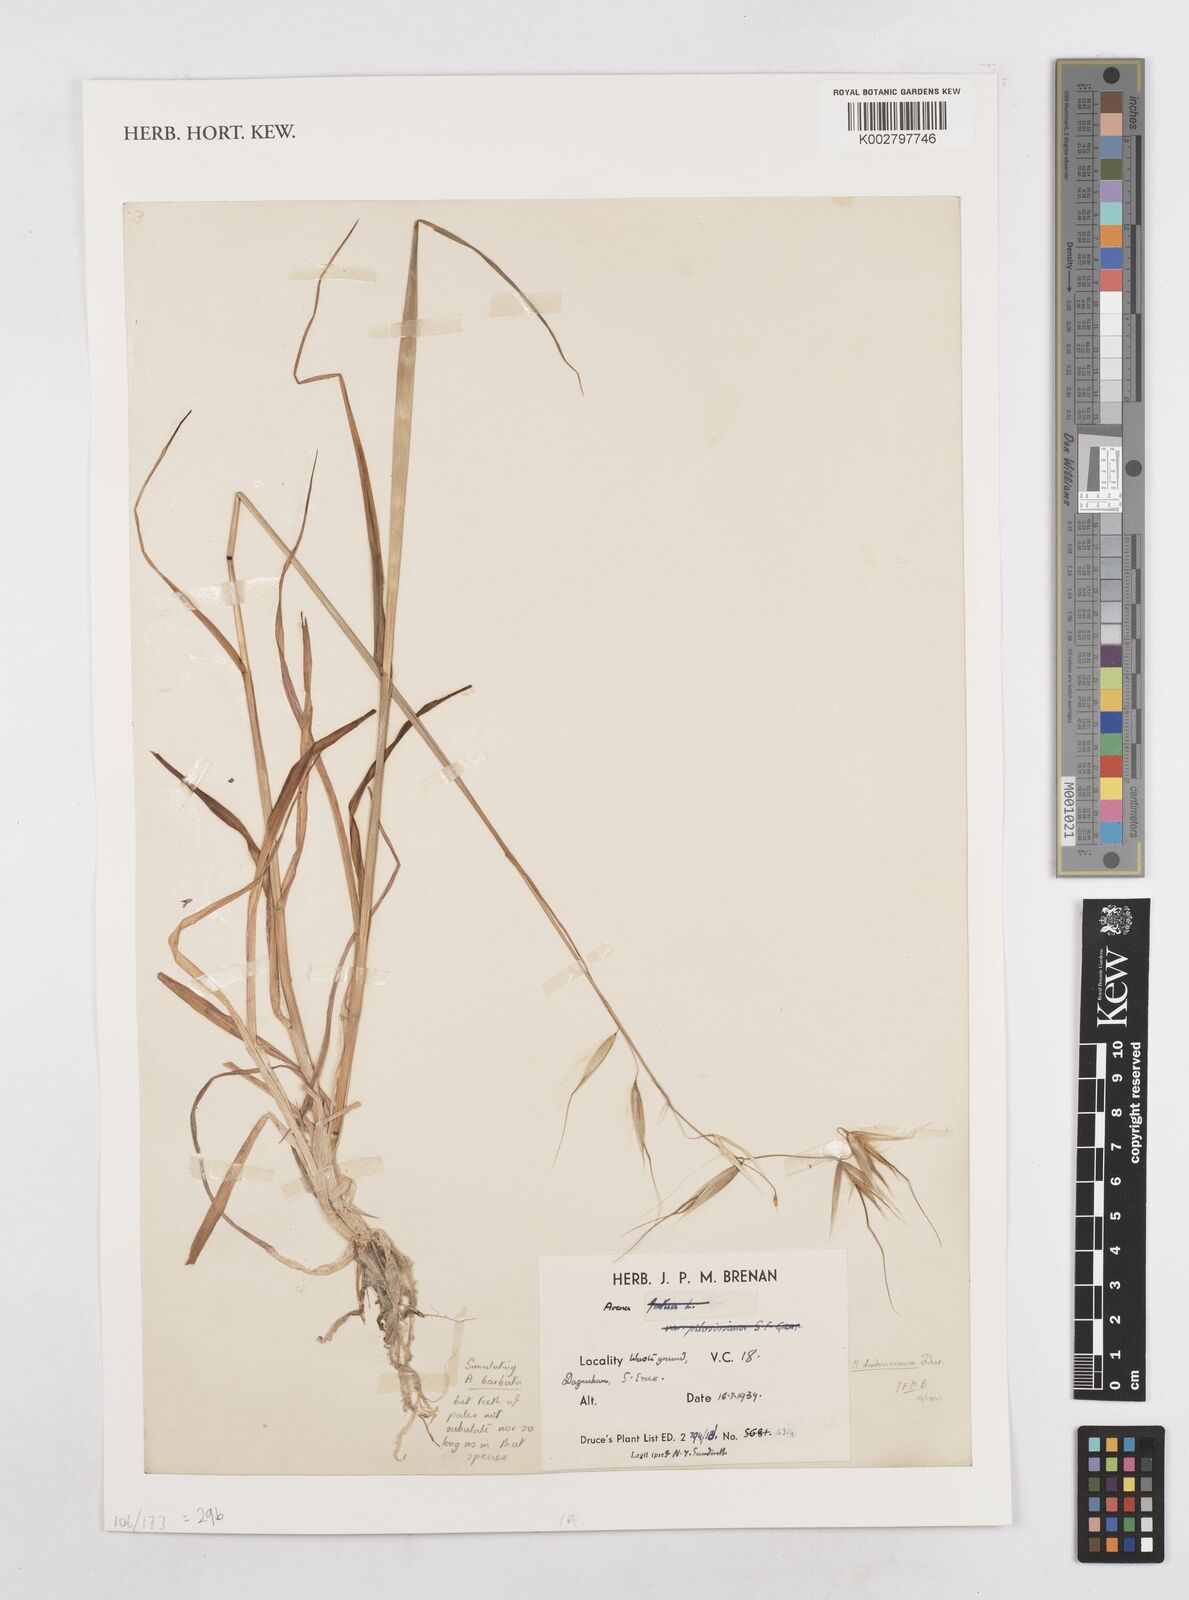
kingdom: Plantae
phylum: Tracheophyta
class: Liliopsida
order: Poales
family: Poaceae
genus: Avena
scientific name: Avena sterilis
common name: Animated oat
